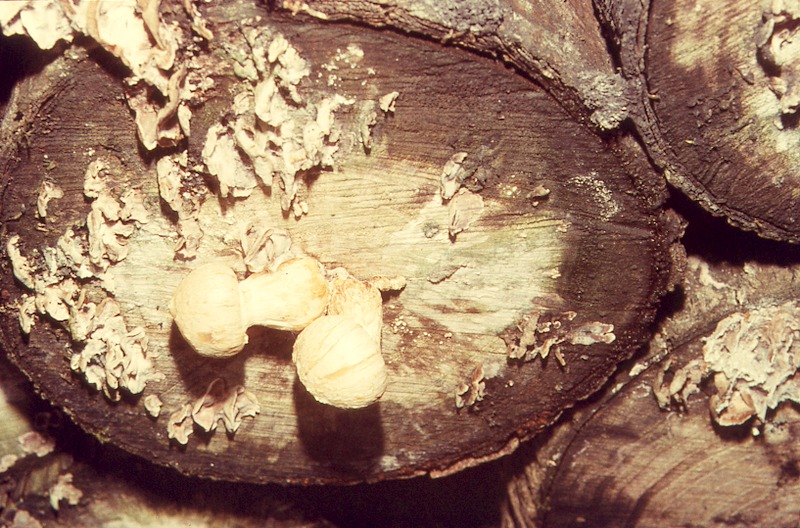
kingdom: Plantae
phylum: Tracheophyta
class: Magnoliopsida
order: Malpighiales
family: Salicaceae
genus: Populus
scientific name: Populus
